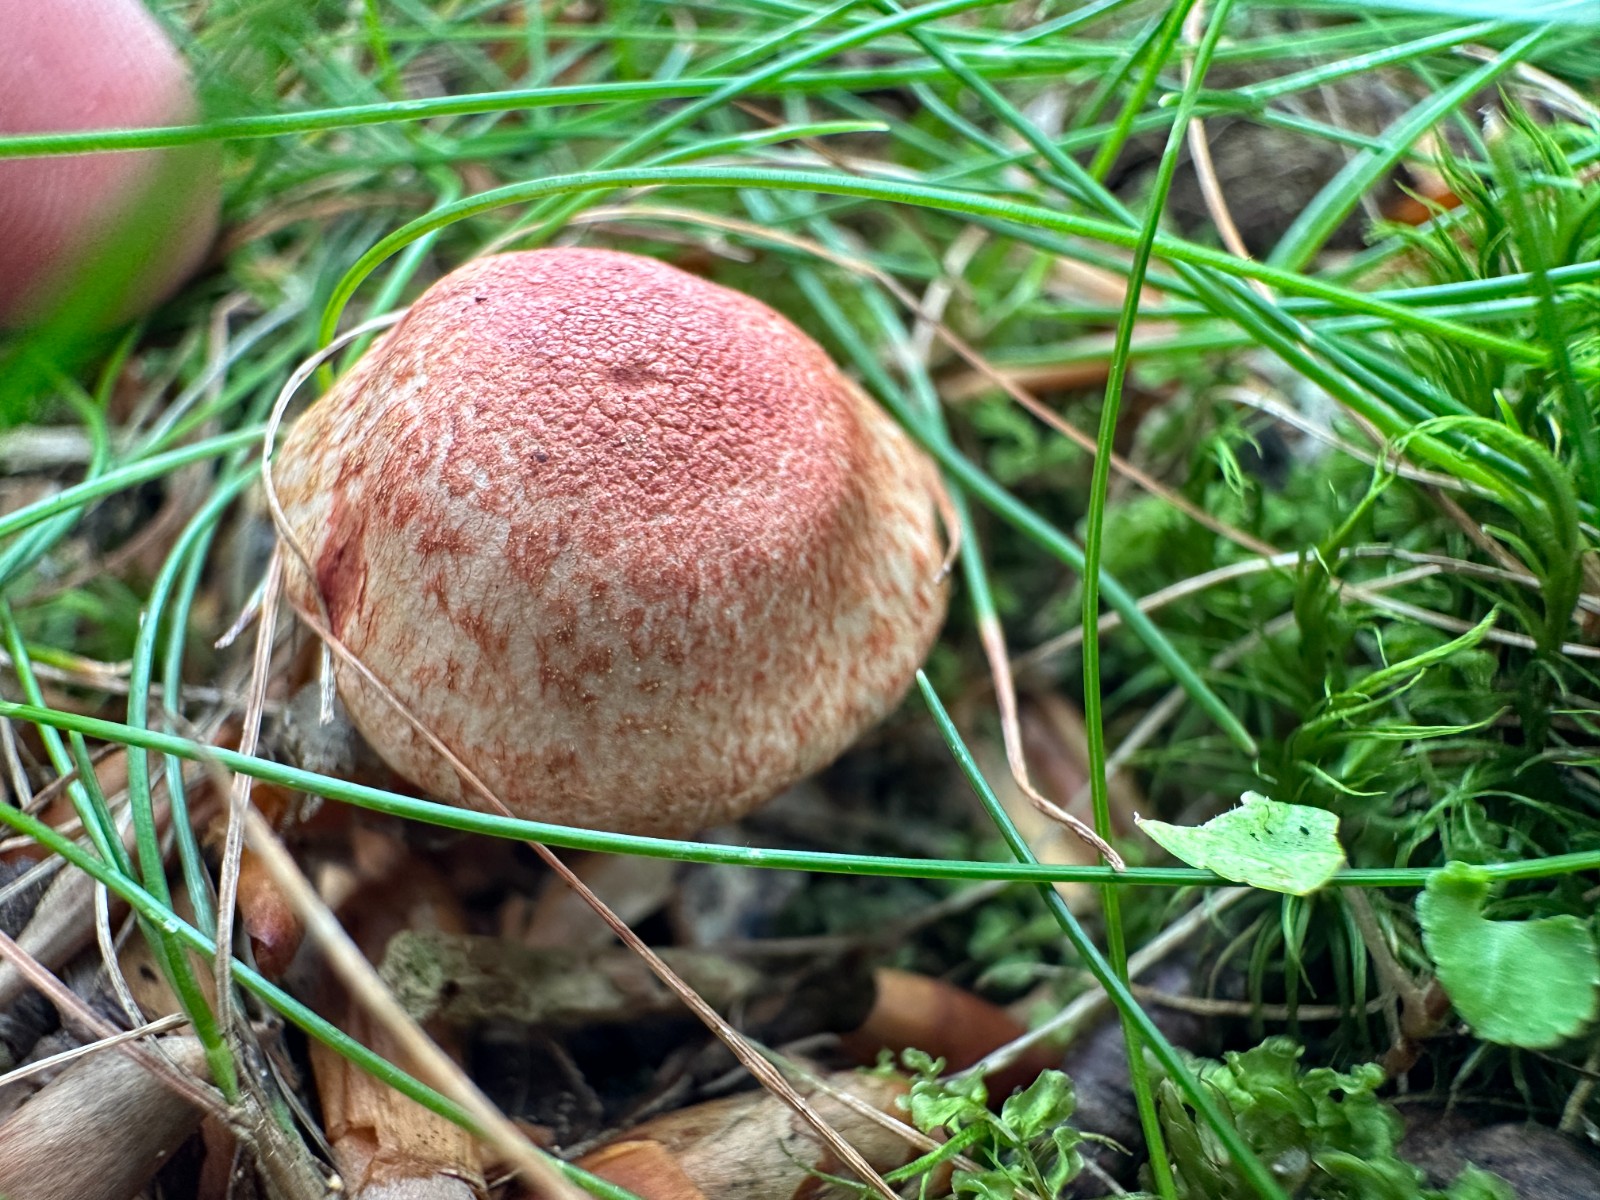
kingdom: Fungi
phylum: Basidiomycota
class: Agaricomycetes
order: Agaricales
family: Cortinariaceae
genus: Cortinarius
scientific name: Cortinarius bolaris
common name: cinnoberskællet slørhat
